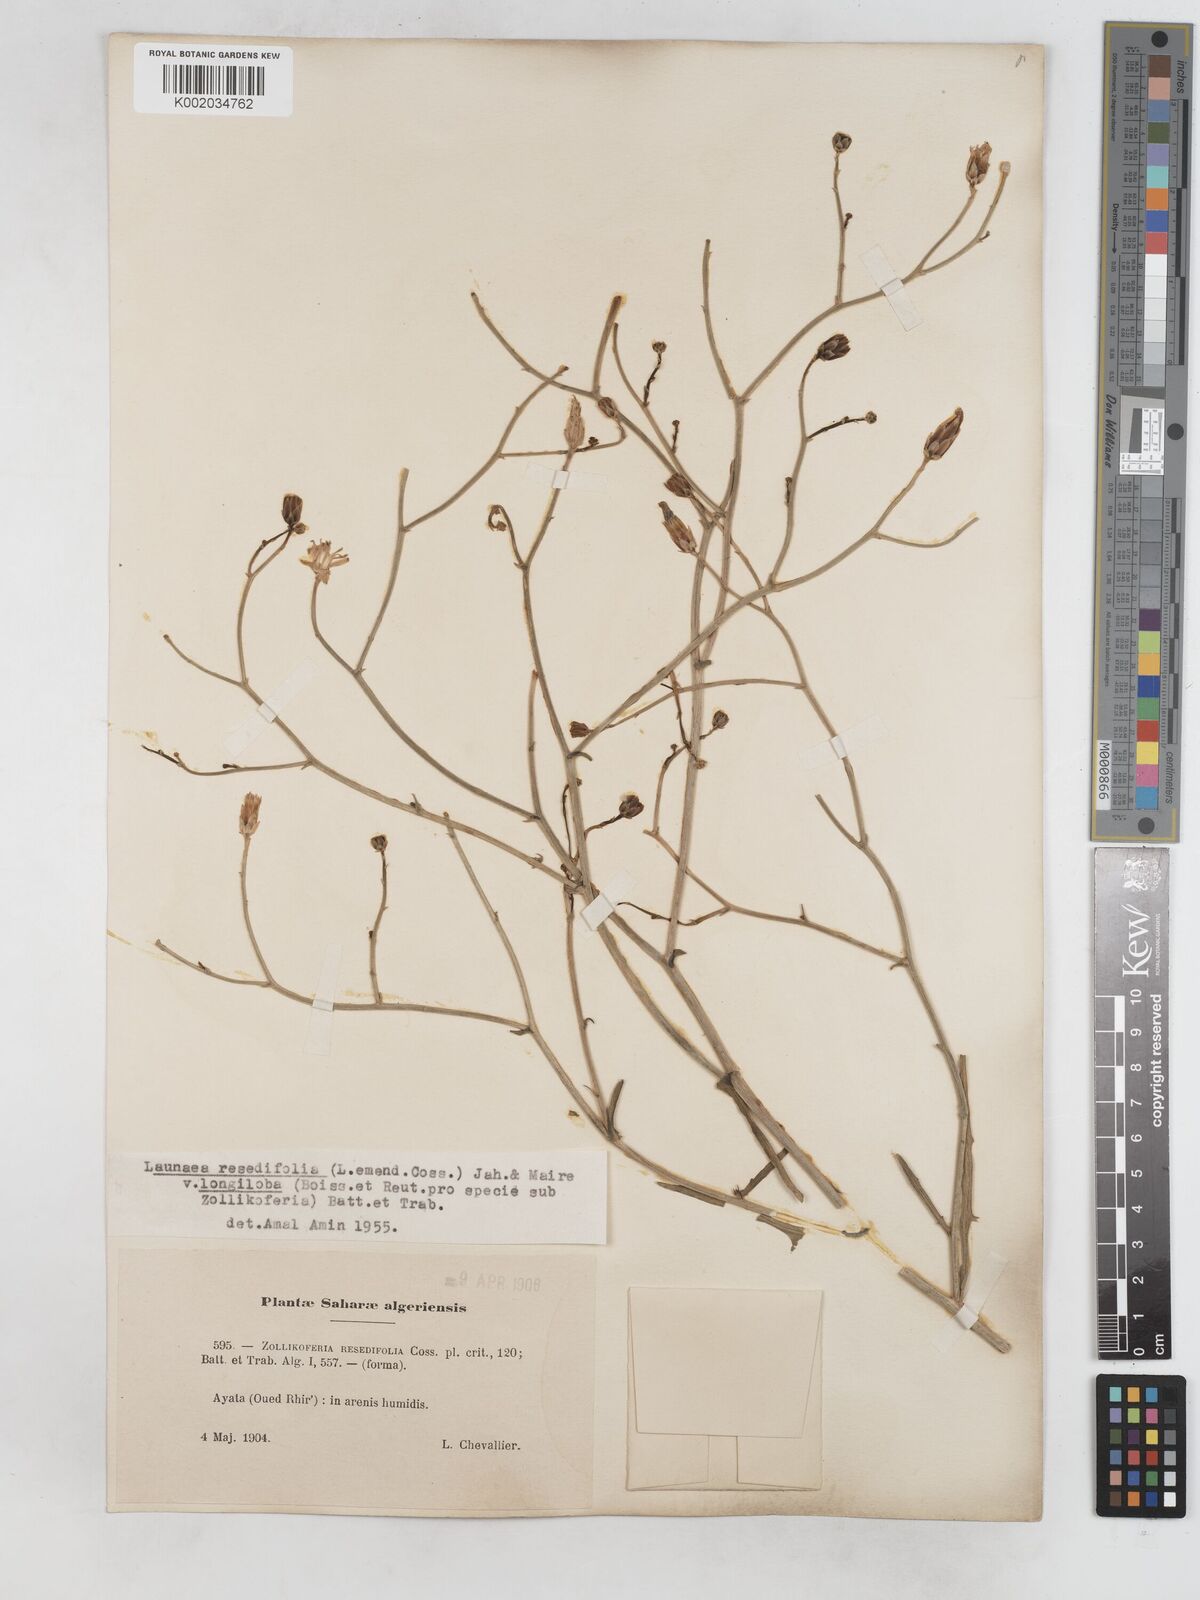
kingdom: Plantae
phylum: Tracheophyta
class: Magnoliopsida
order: Asterales
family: Asteraceae
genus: Launaea
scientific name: Launaea
